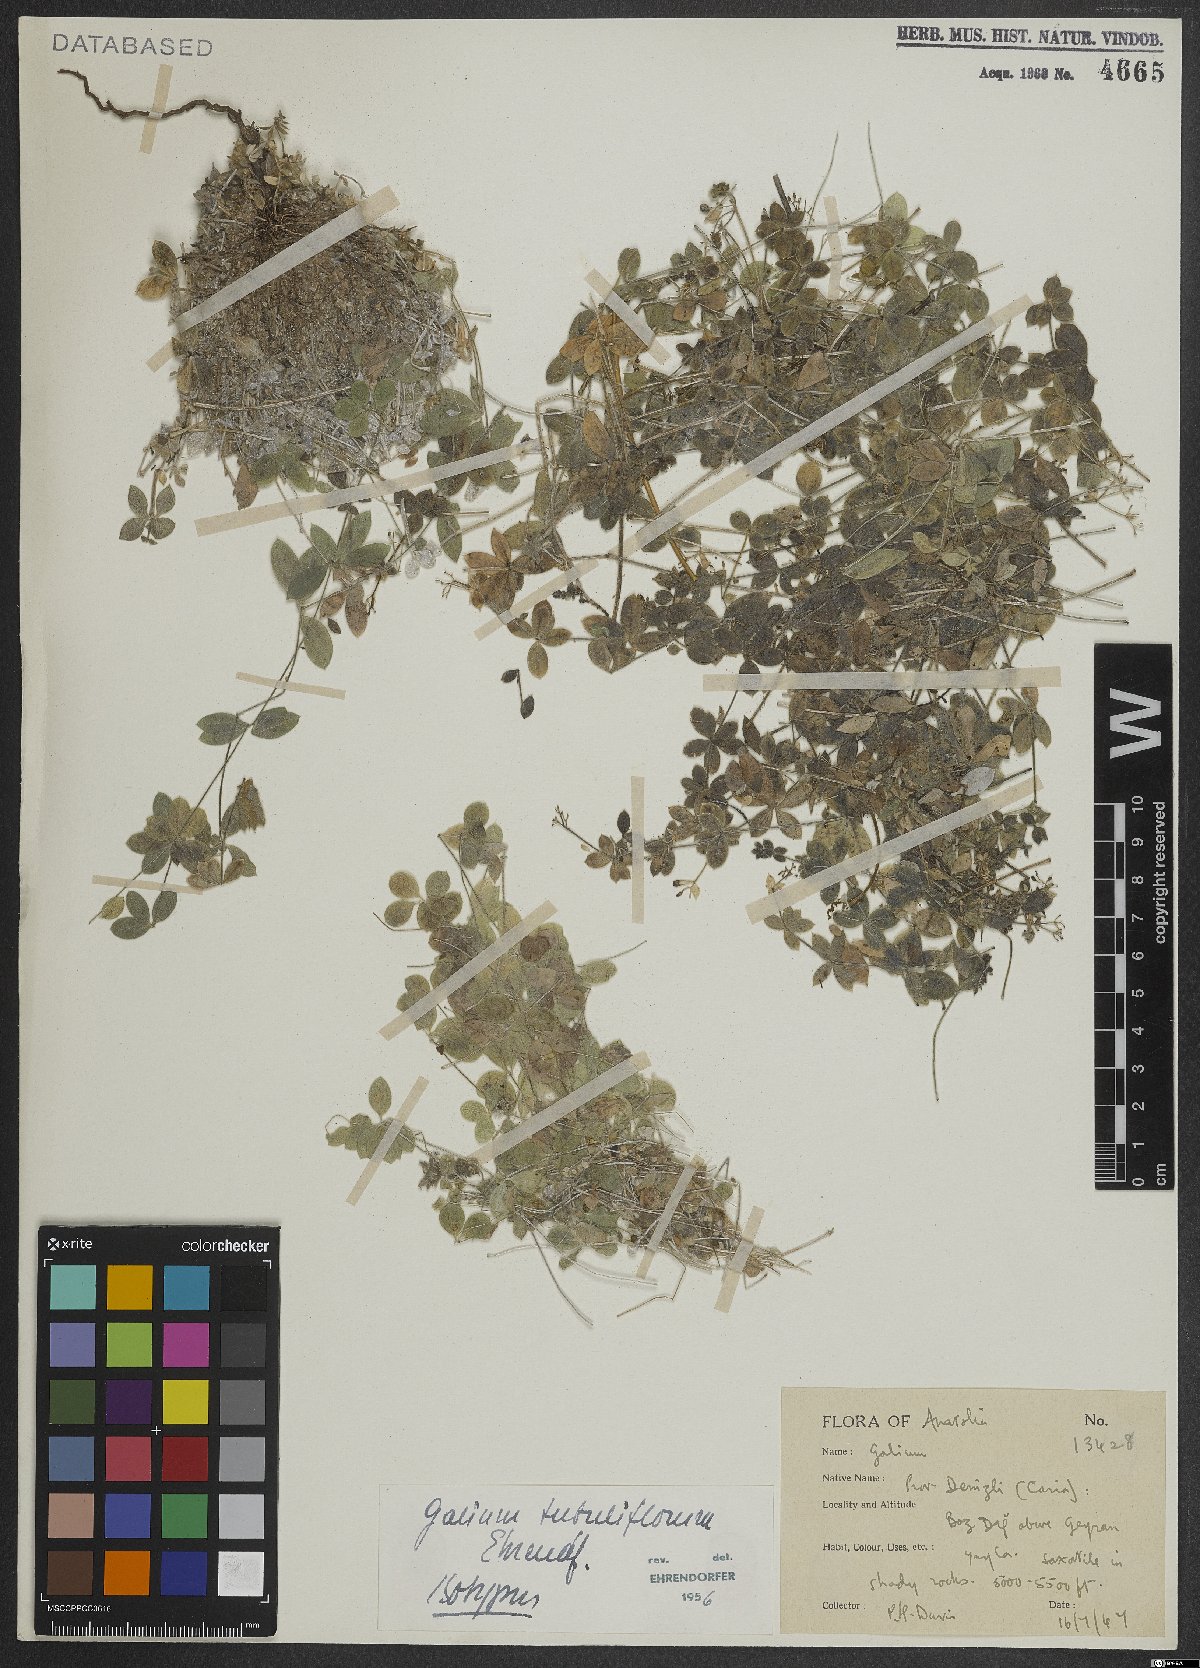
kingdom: Plantae
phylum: Tracheophyta
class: Magnoliopsida
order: Gentianales
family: Rubiaceae
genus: Galium
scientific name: Galium tubiflorum
